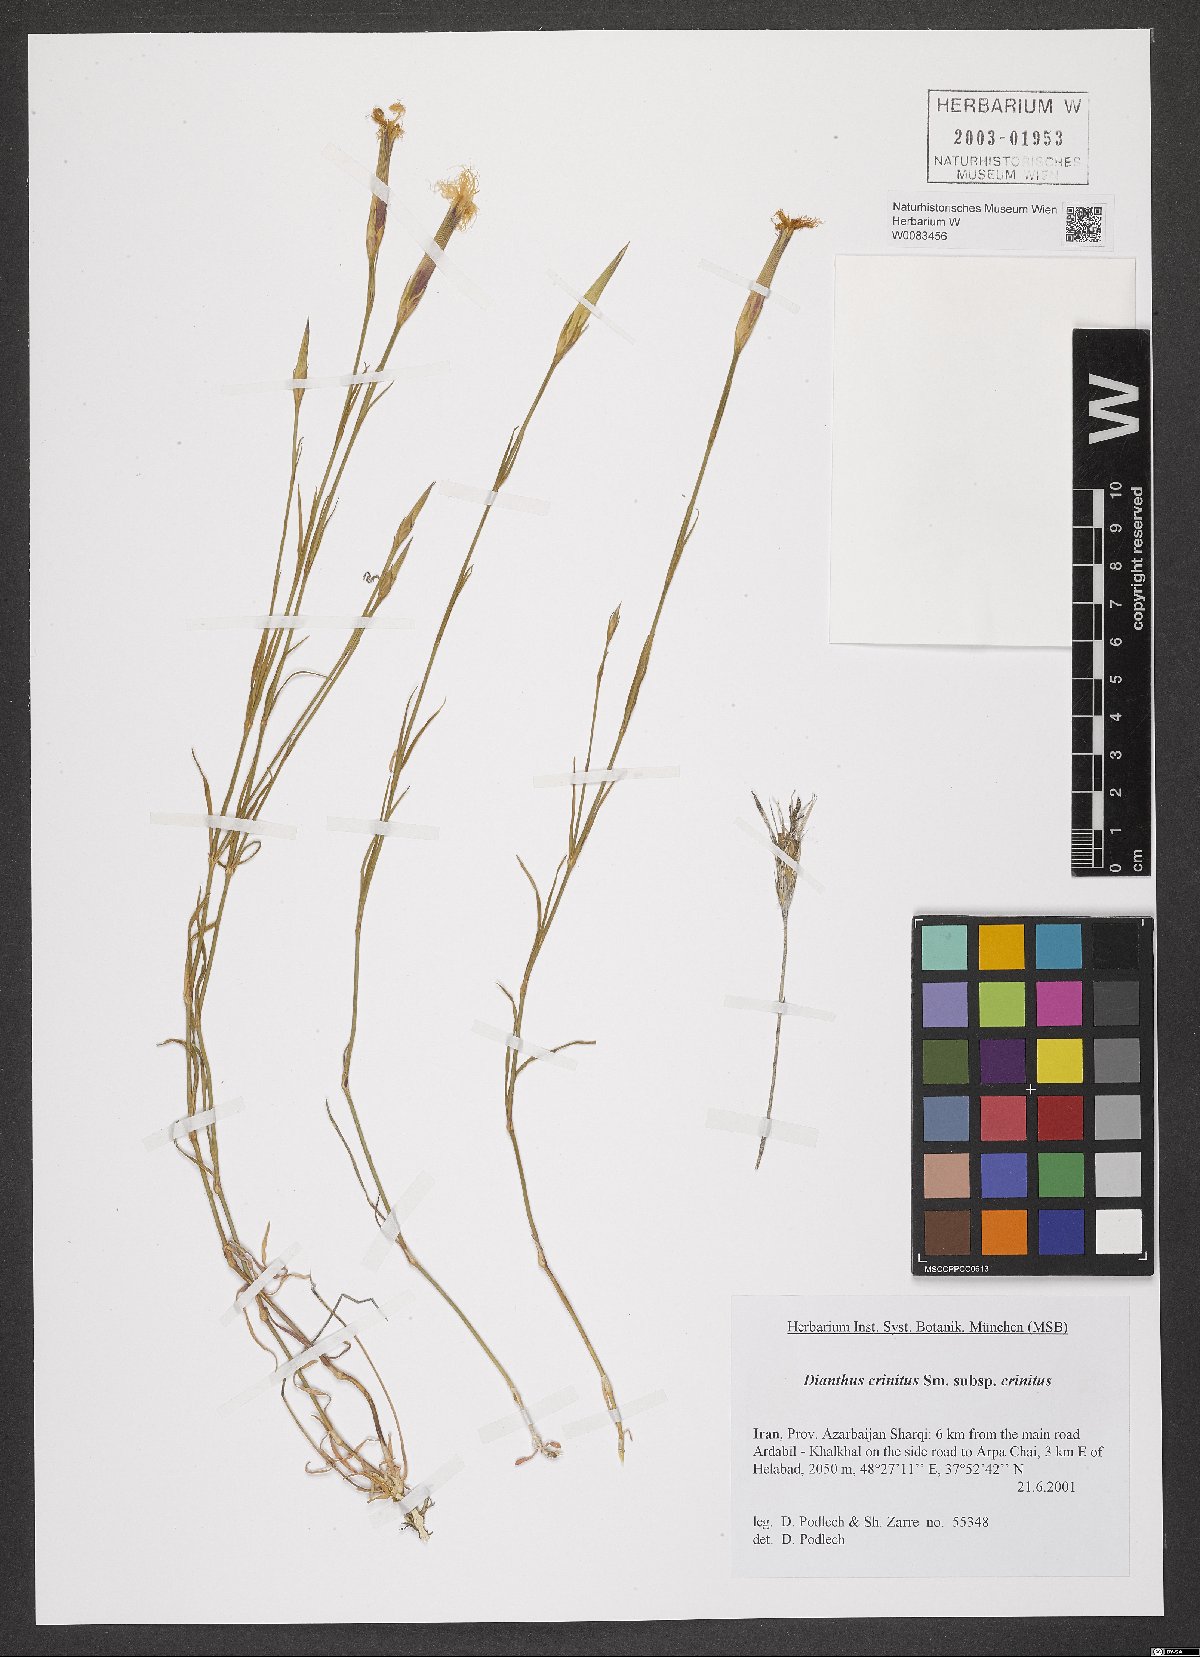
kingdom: Plantae
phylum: Tracheophyta
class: Magnoliopsida
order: Caryophyllales
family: Caryophyllaceae
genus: Dianthus
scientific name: Dianthus crinitus
